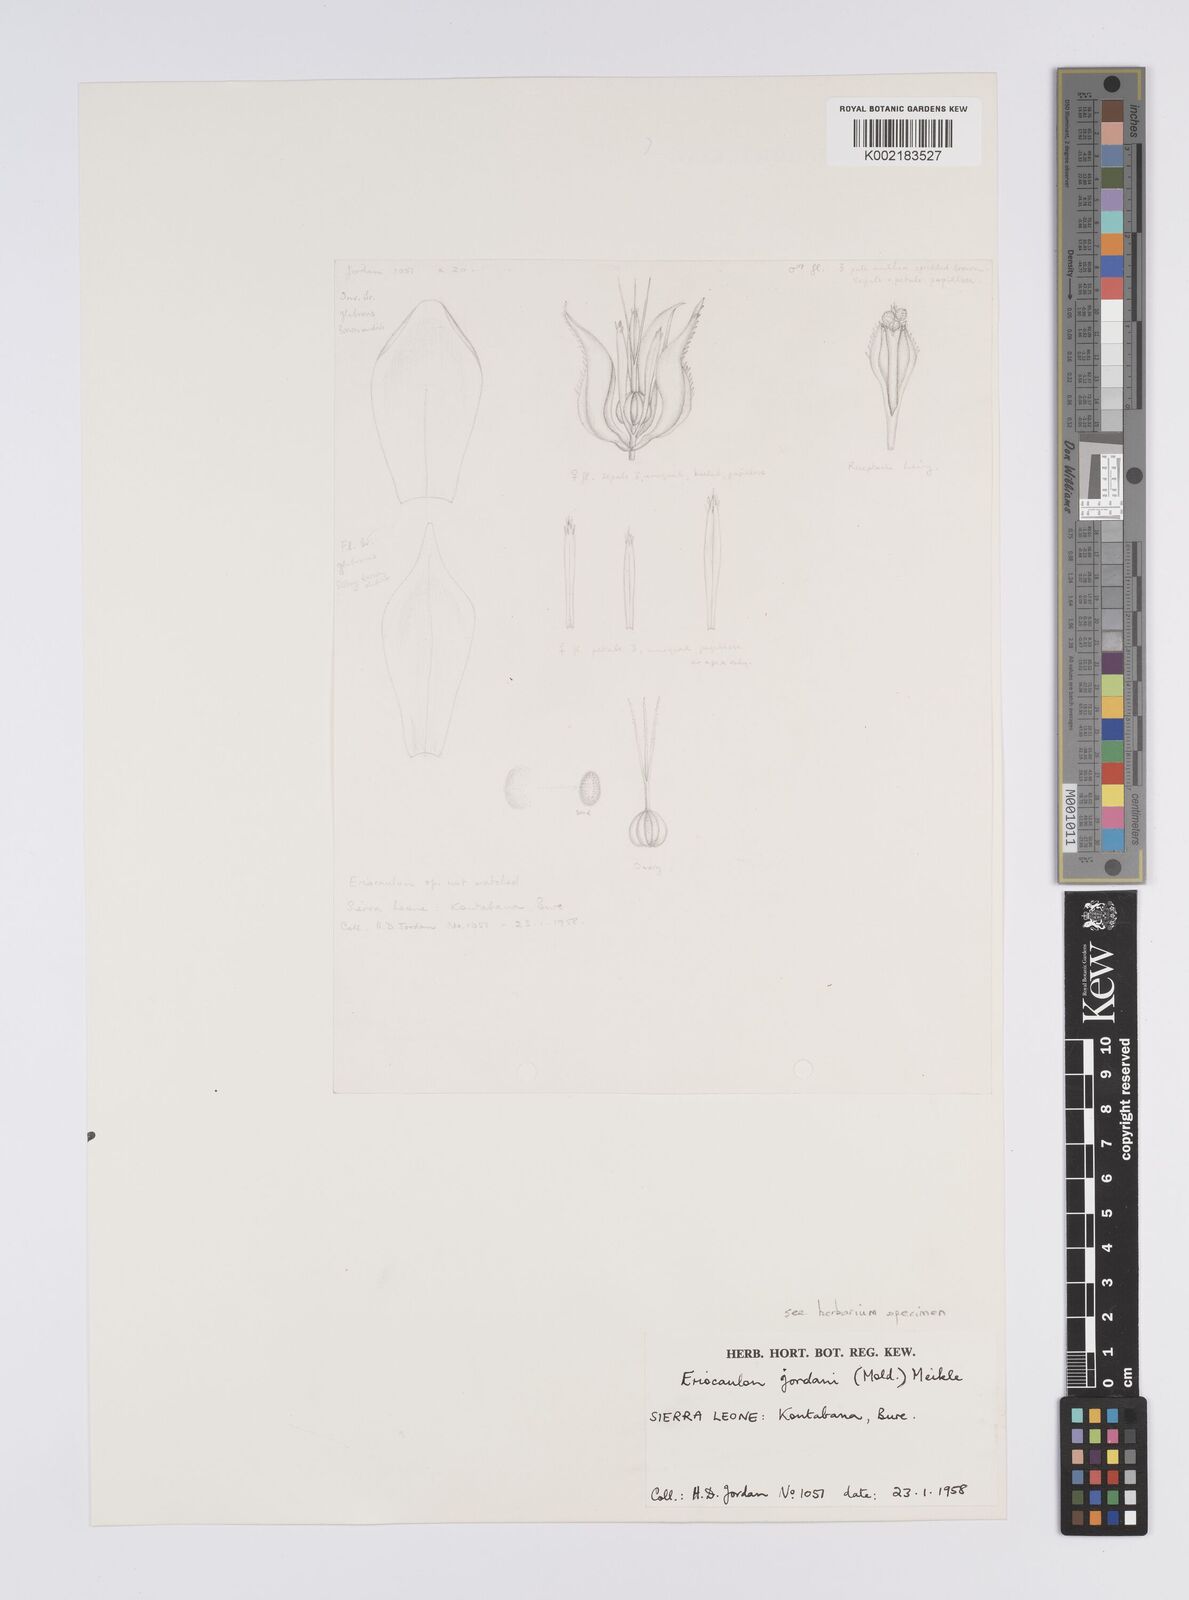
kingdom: Plantae
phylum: Tracheophyta
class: Liliopsida
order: Poales
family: Eriocaulaceae
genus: Eriocaulon
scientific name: Eriocaulon jordanii
